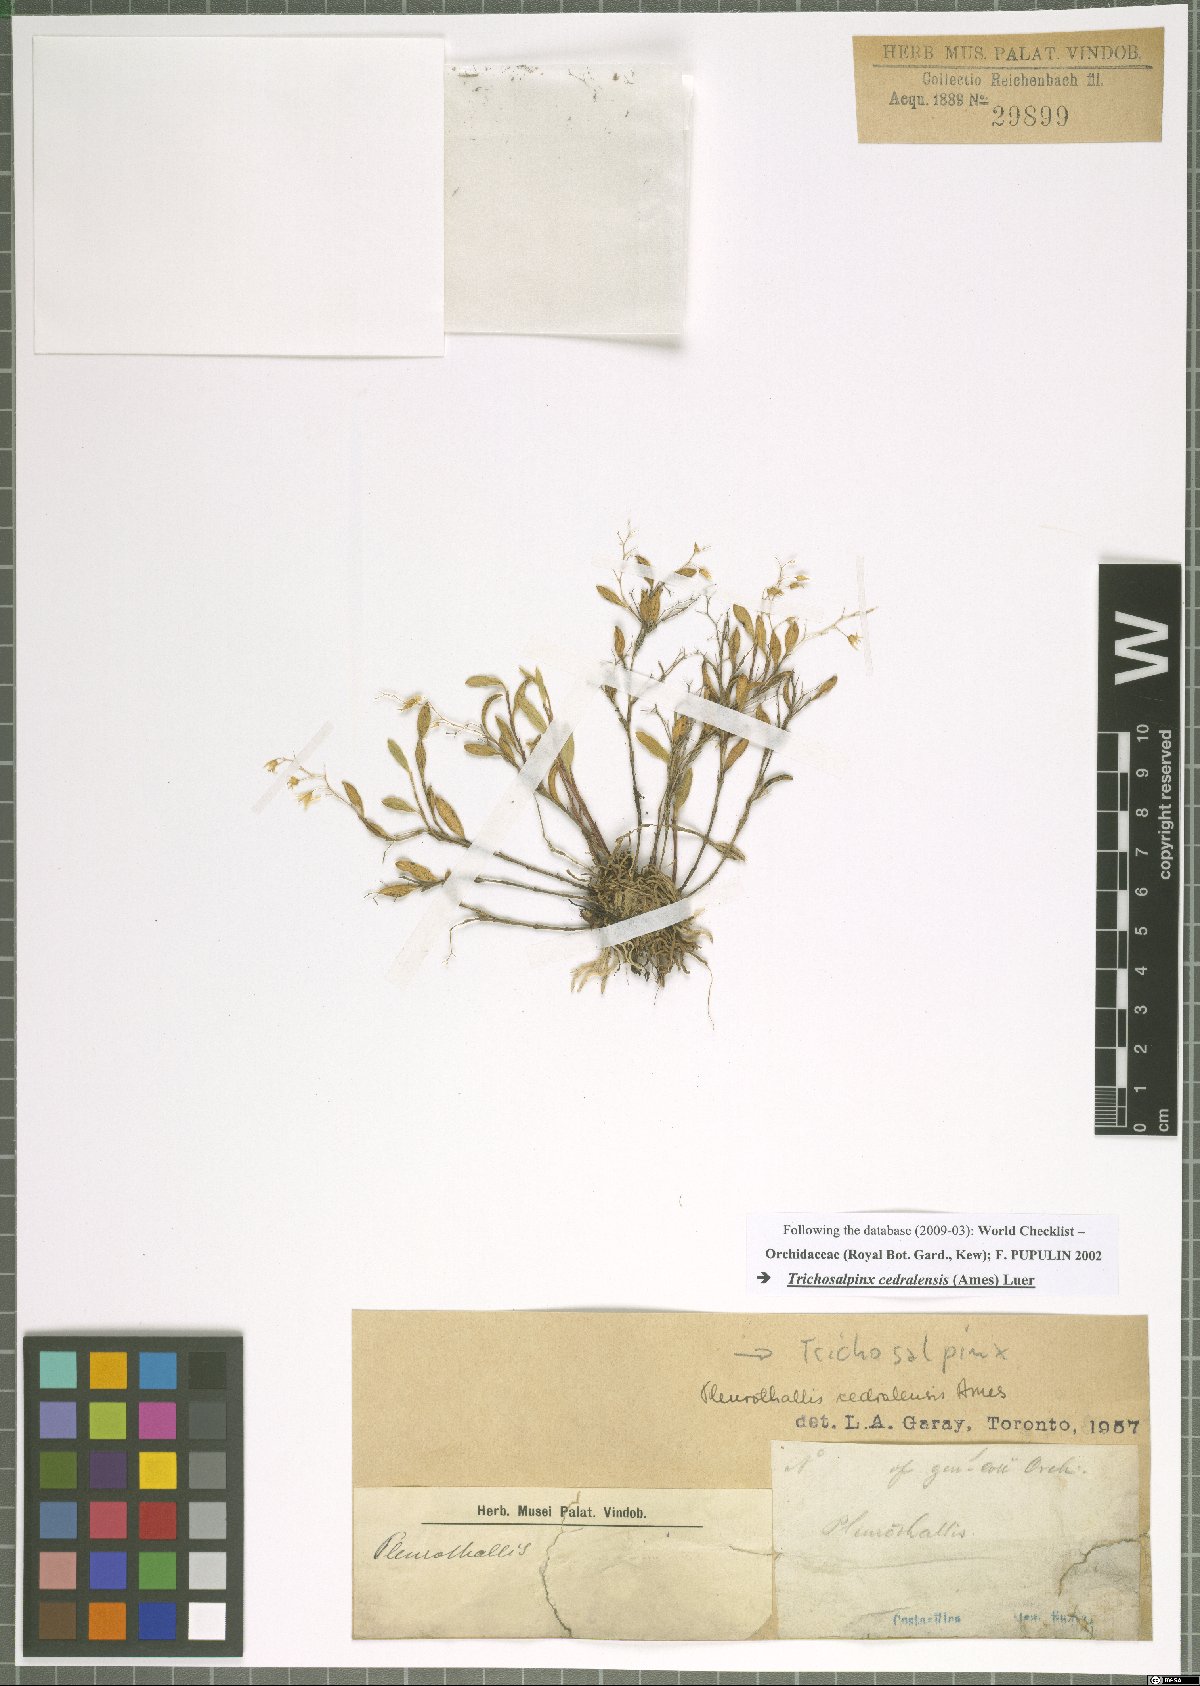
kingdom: Plantae
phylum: Tracheophyta
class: Liliopsida
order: Asparagales
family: Orchidaceae
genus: Trichosalpinx
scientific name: Trichosalpinx cedralensis
